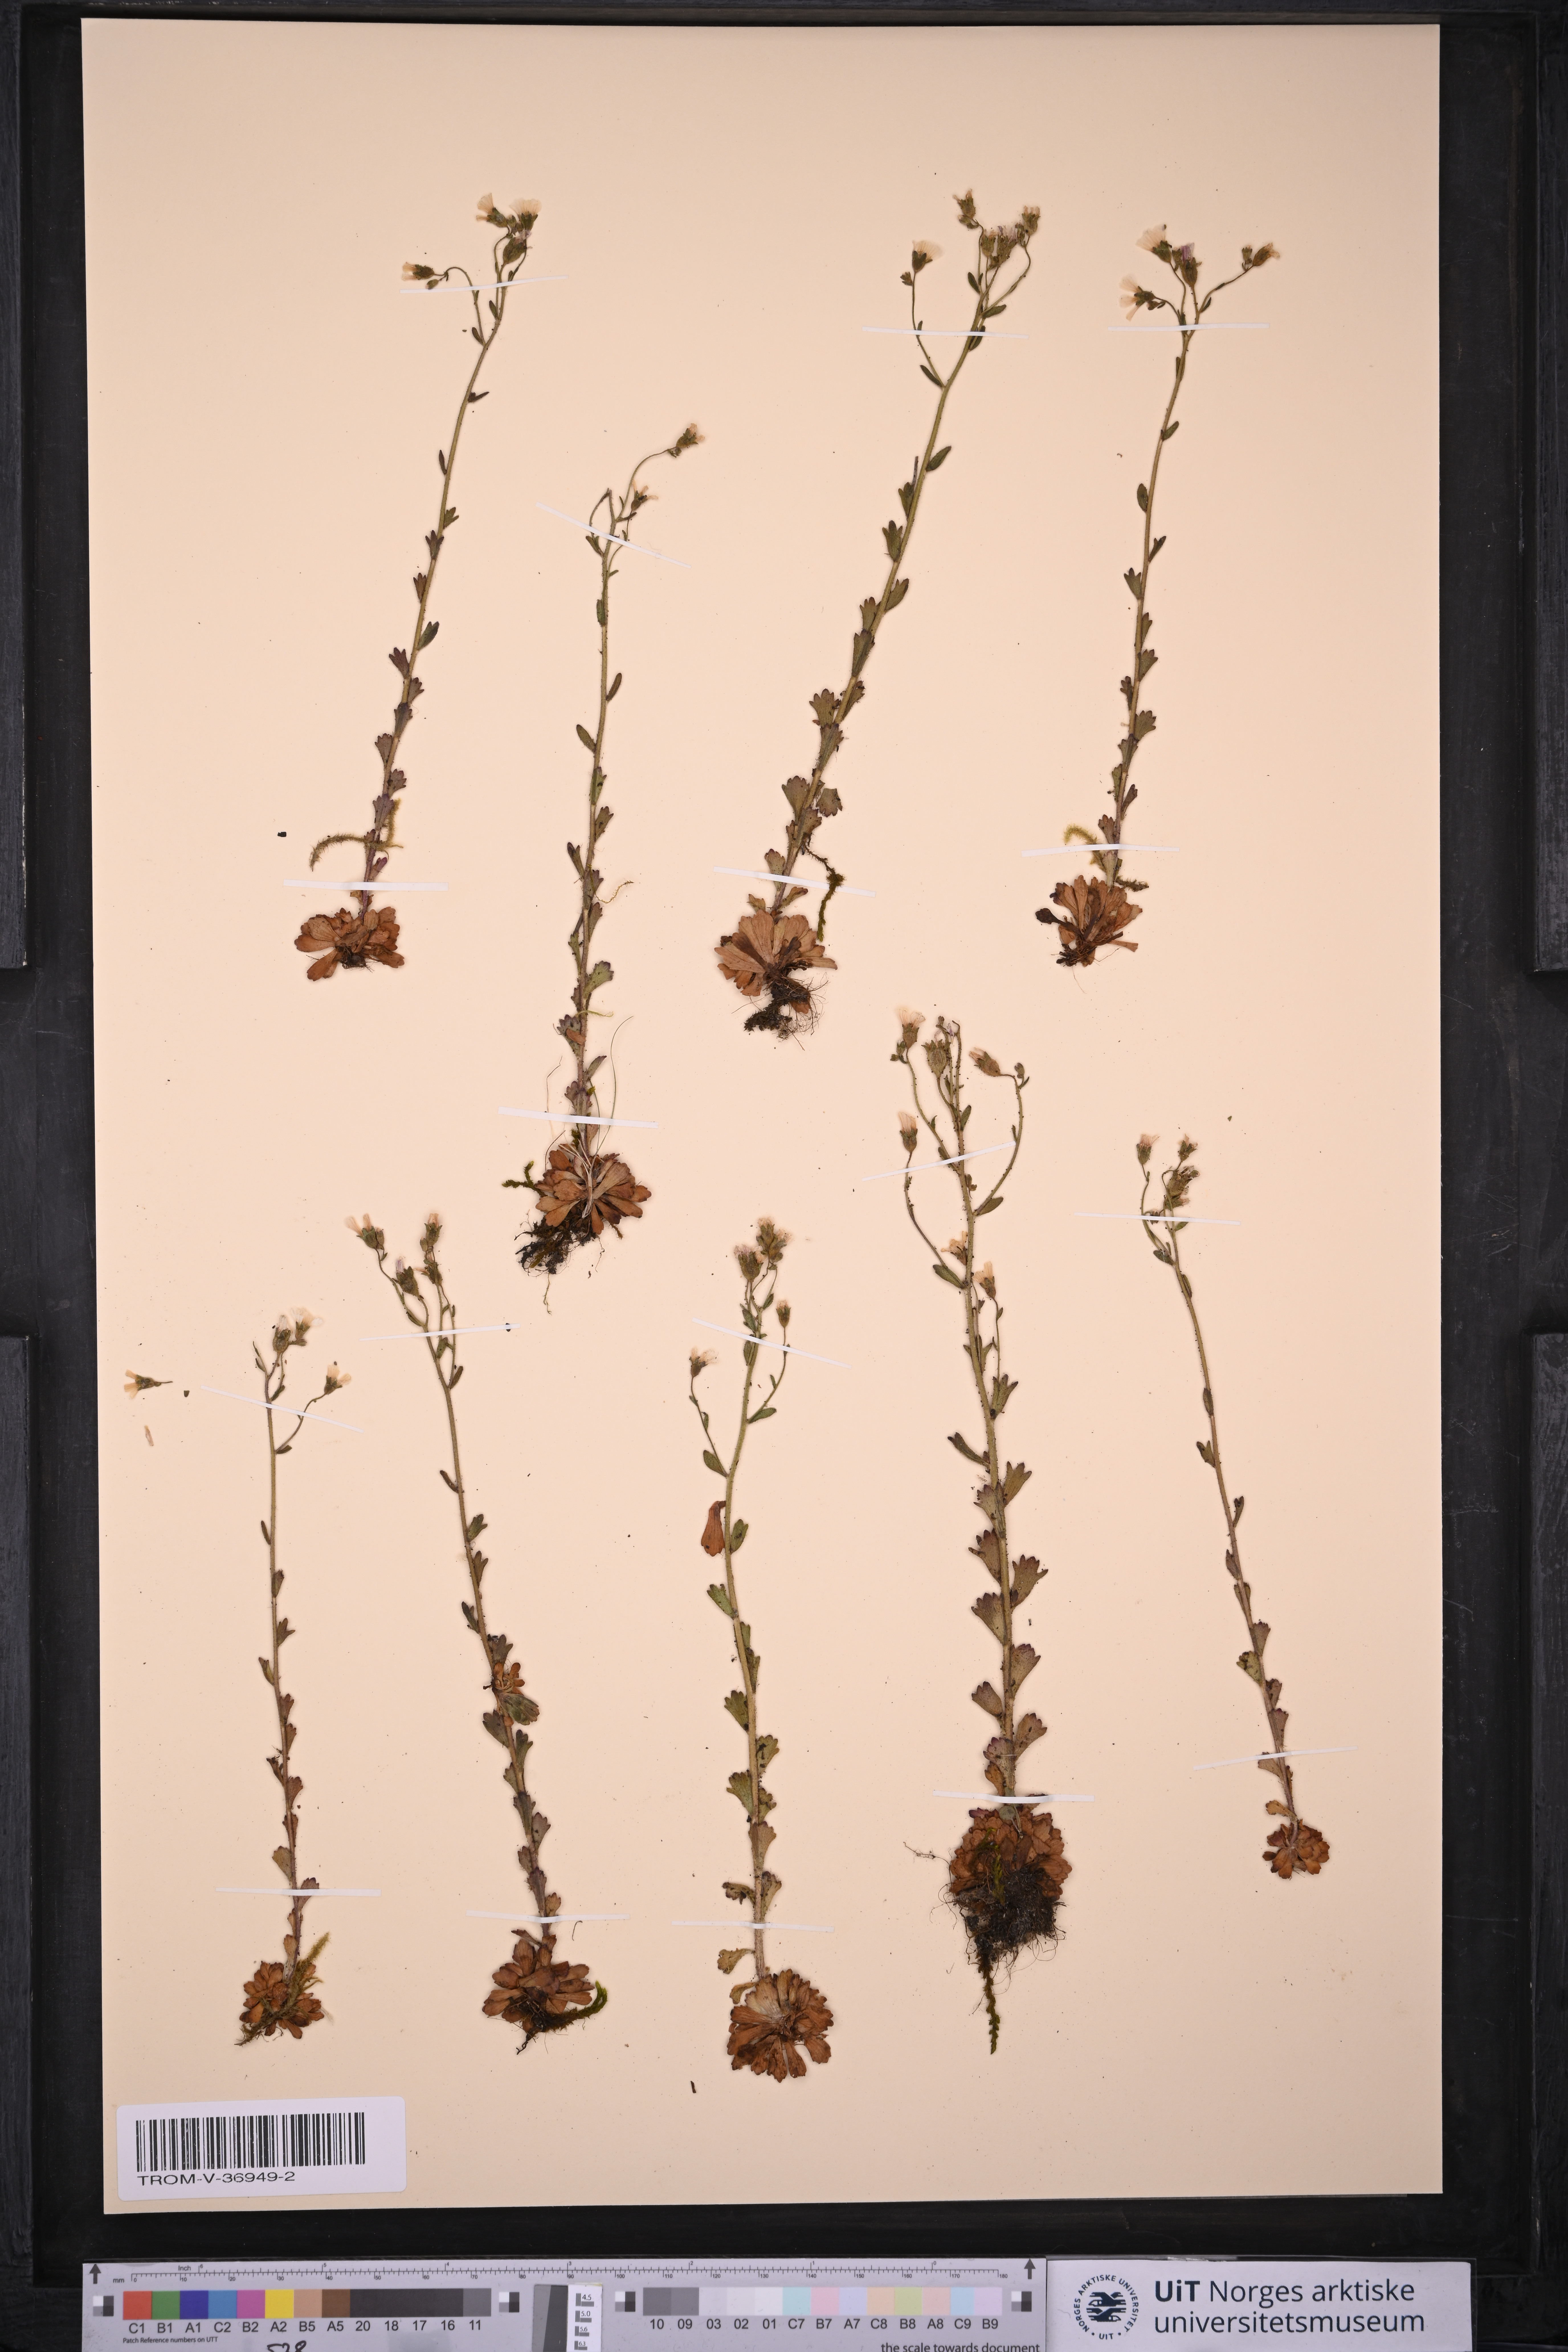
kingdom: Plantae
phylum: Tracheophyta
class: Magnoliopsida
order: Saxifragales
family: Saxifragaceae
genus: Saxifraga
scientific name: Saxifraga adscendens
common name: Ascending saxifrage
